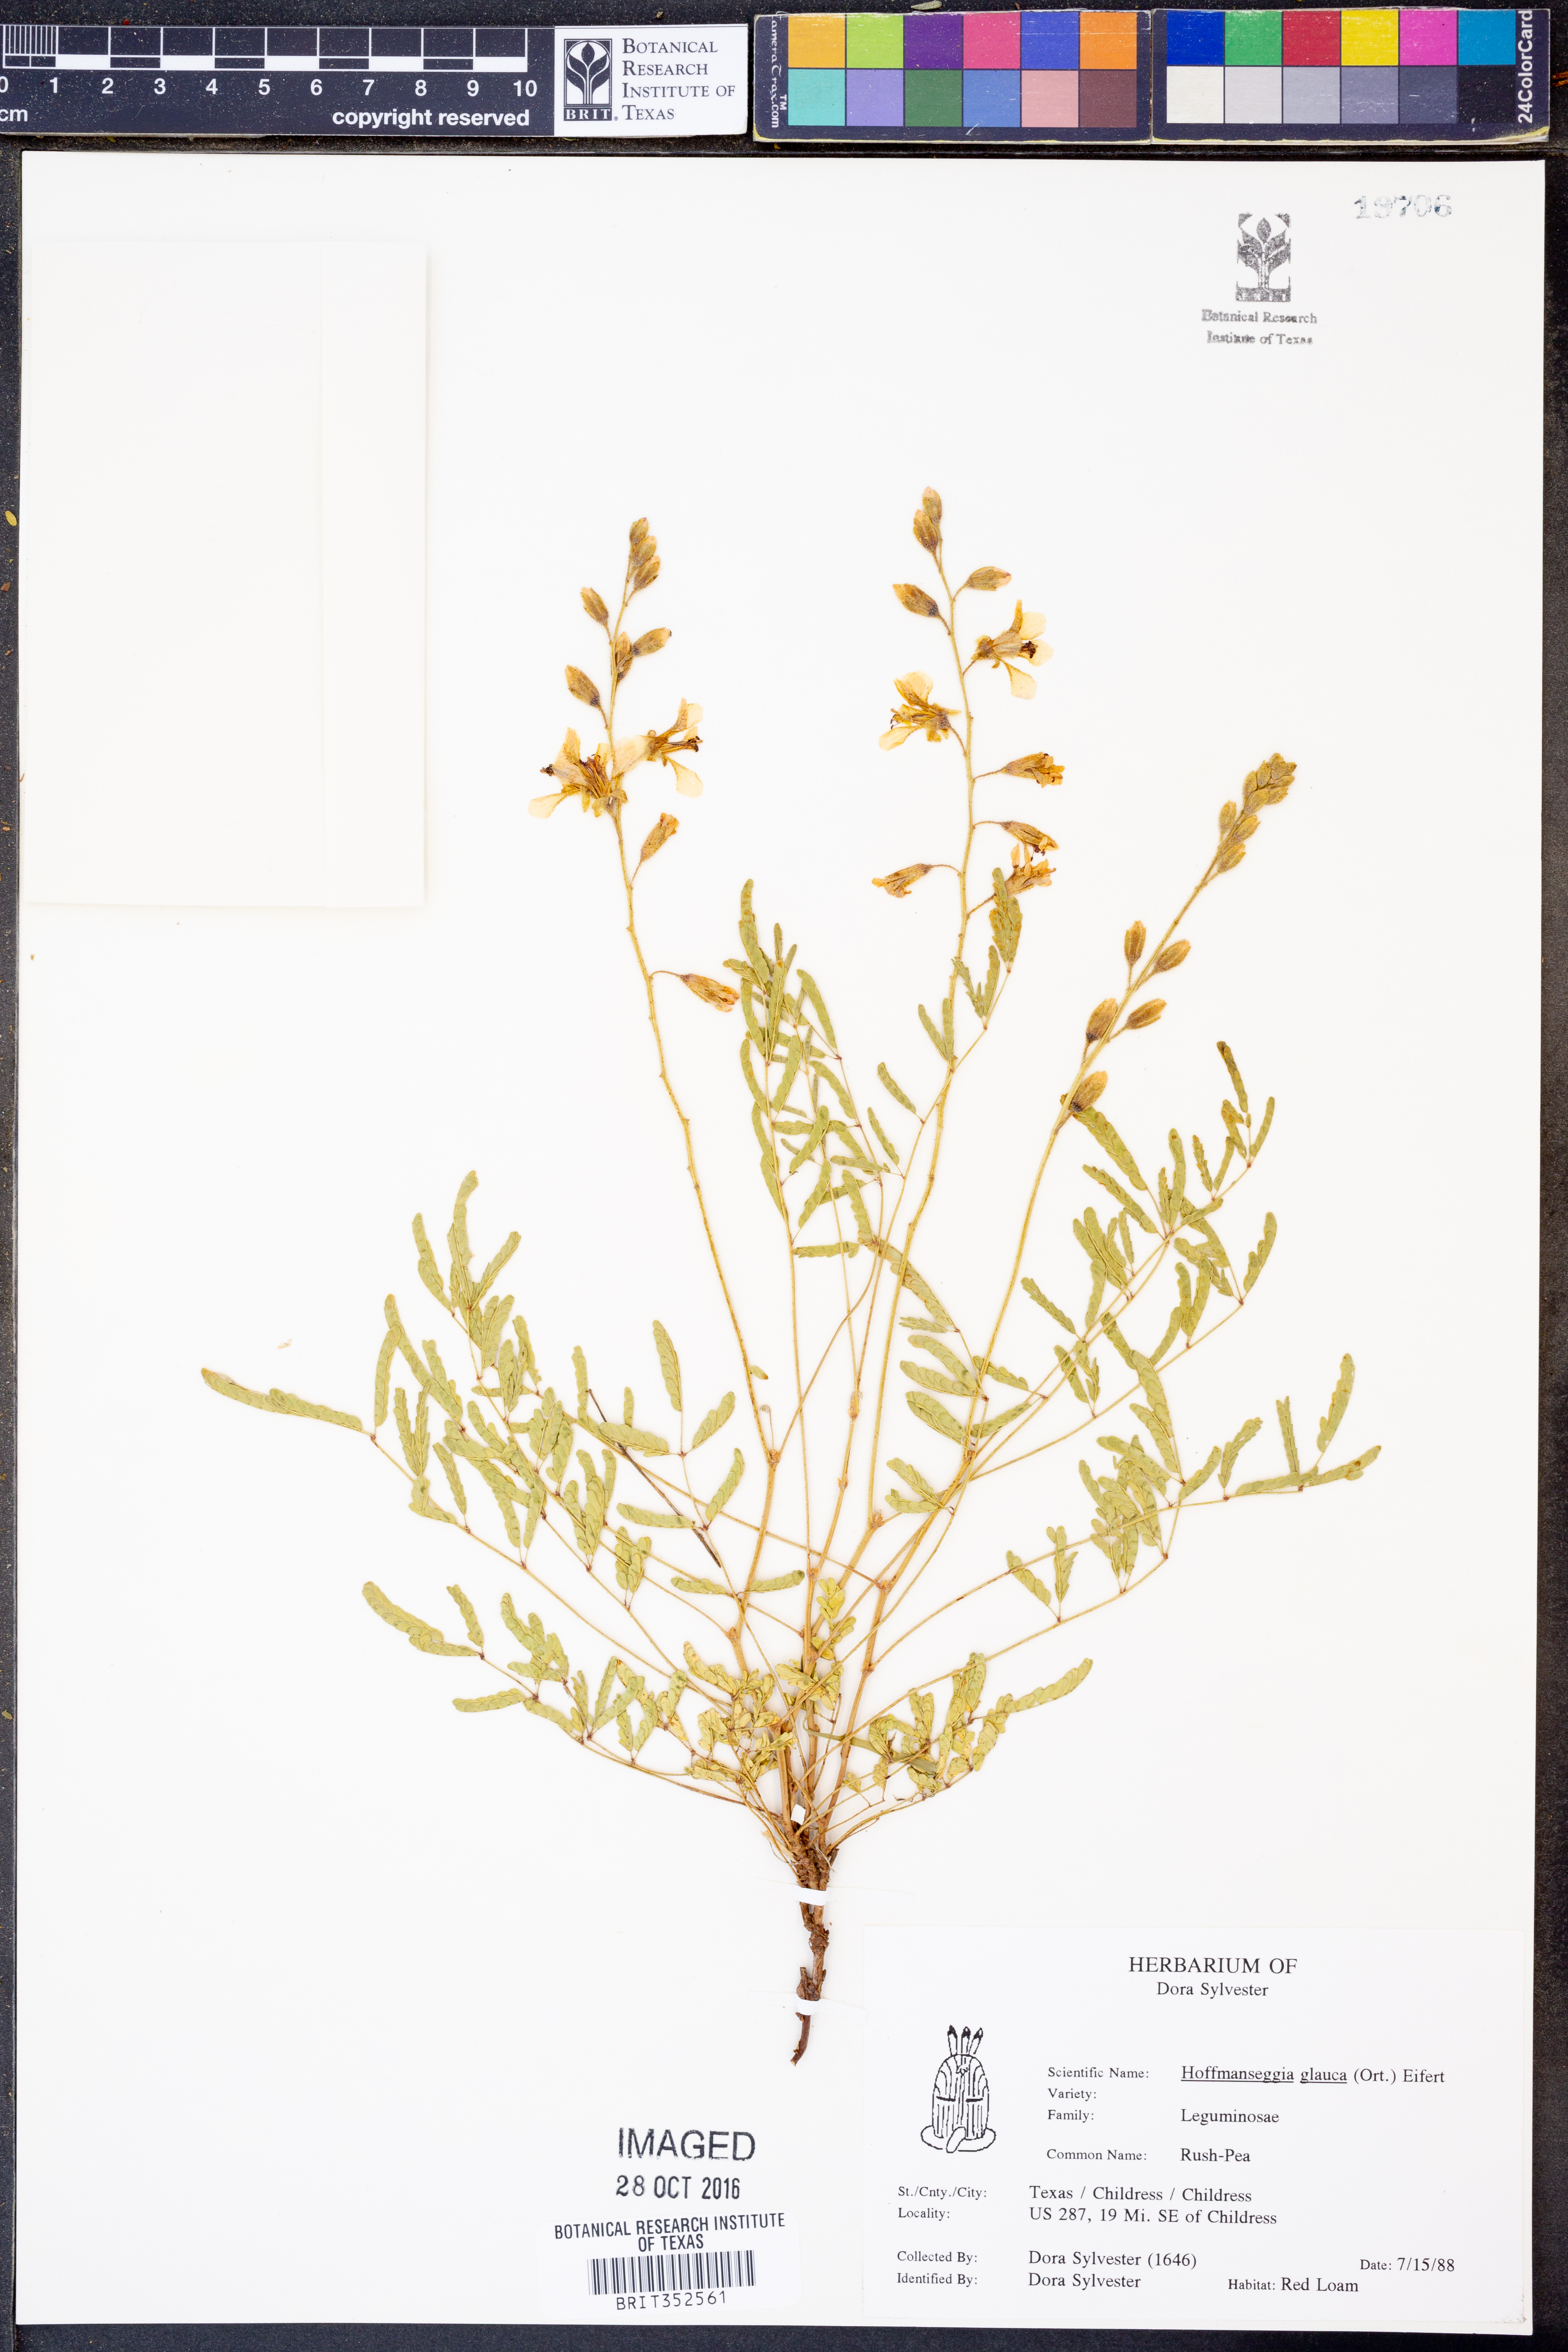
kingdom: Plantae
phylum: Tracheophyta
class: Magnoliopsida
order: Fabales
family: Fabaceae
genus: Hoffmannseggia
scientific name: Hoffmannseggia glauca
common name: Pignut
